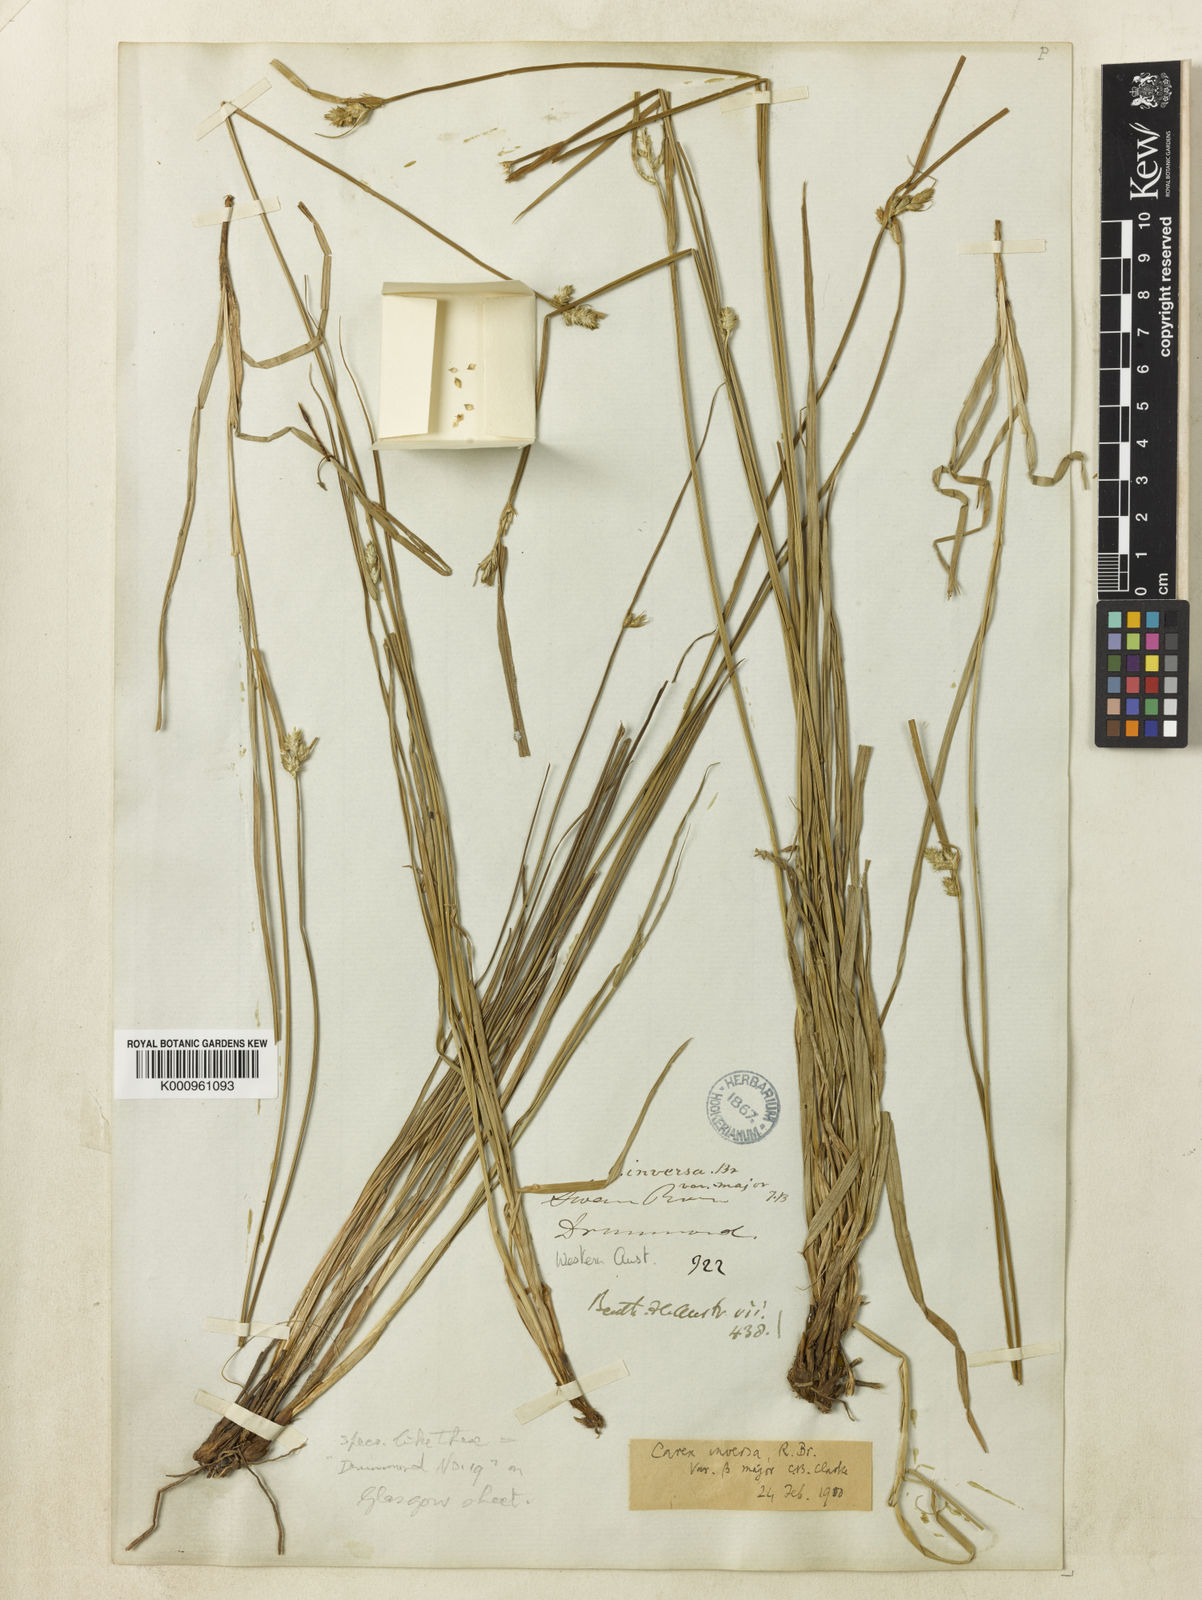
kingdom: Plantae
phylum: Tracheophyta
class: Liliopsida
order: Poales
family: Cyperaceae
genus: Carex
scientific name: Carex inversa
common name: Knob sedge
